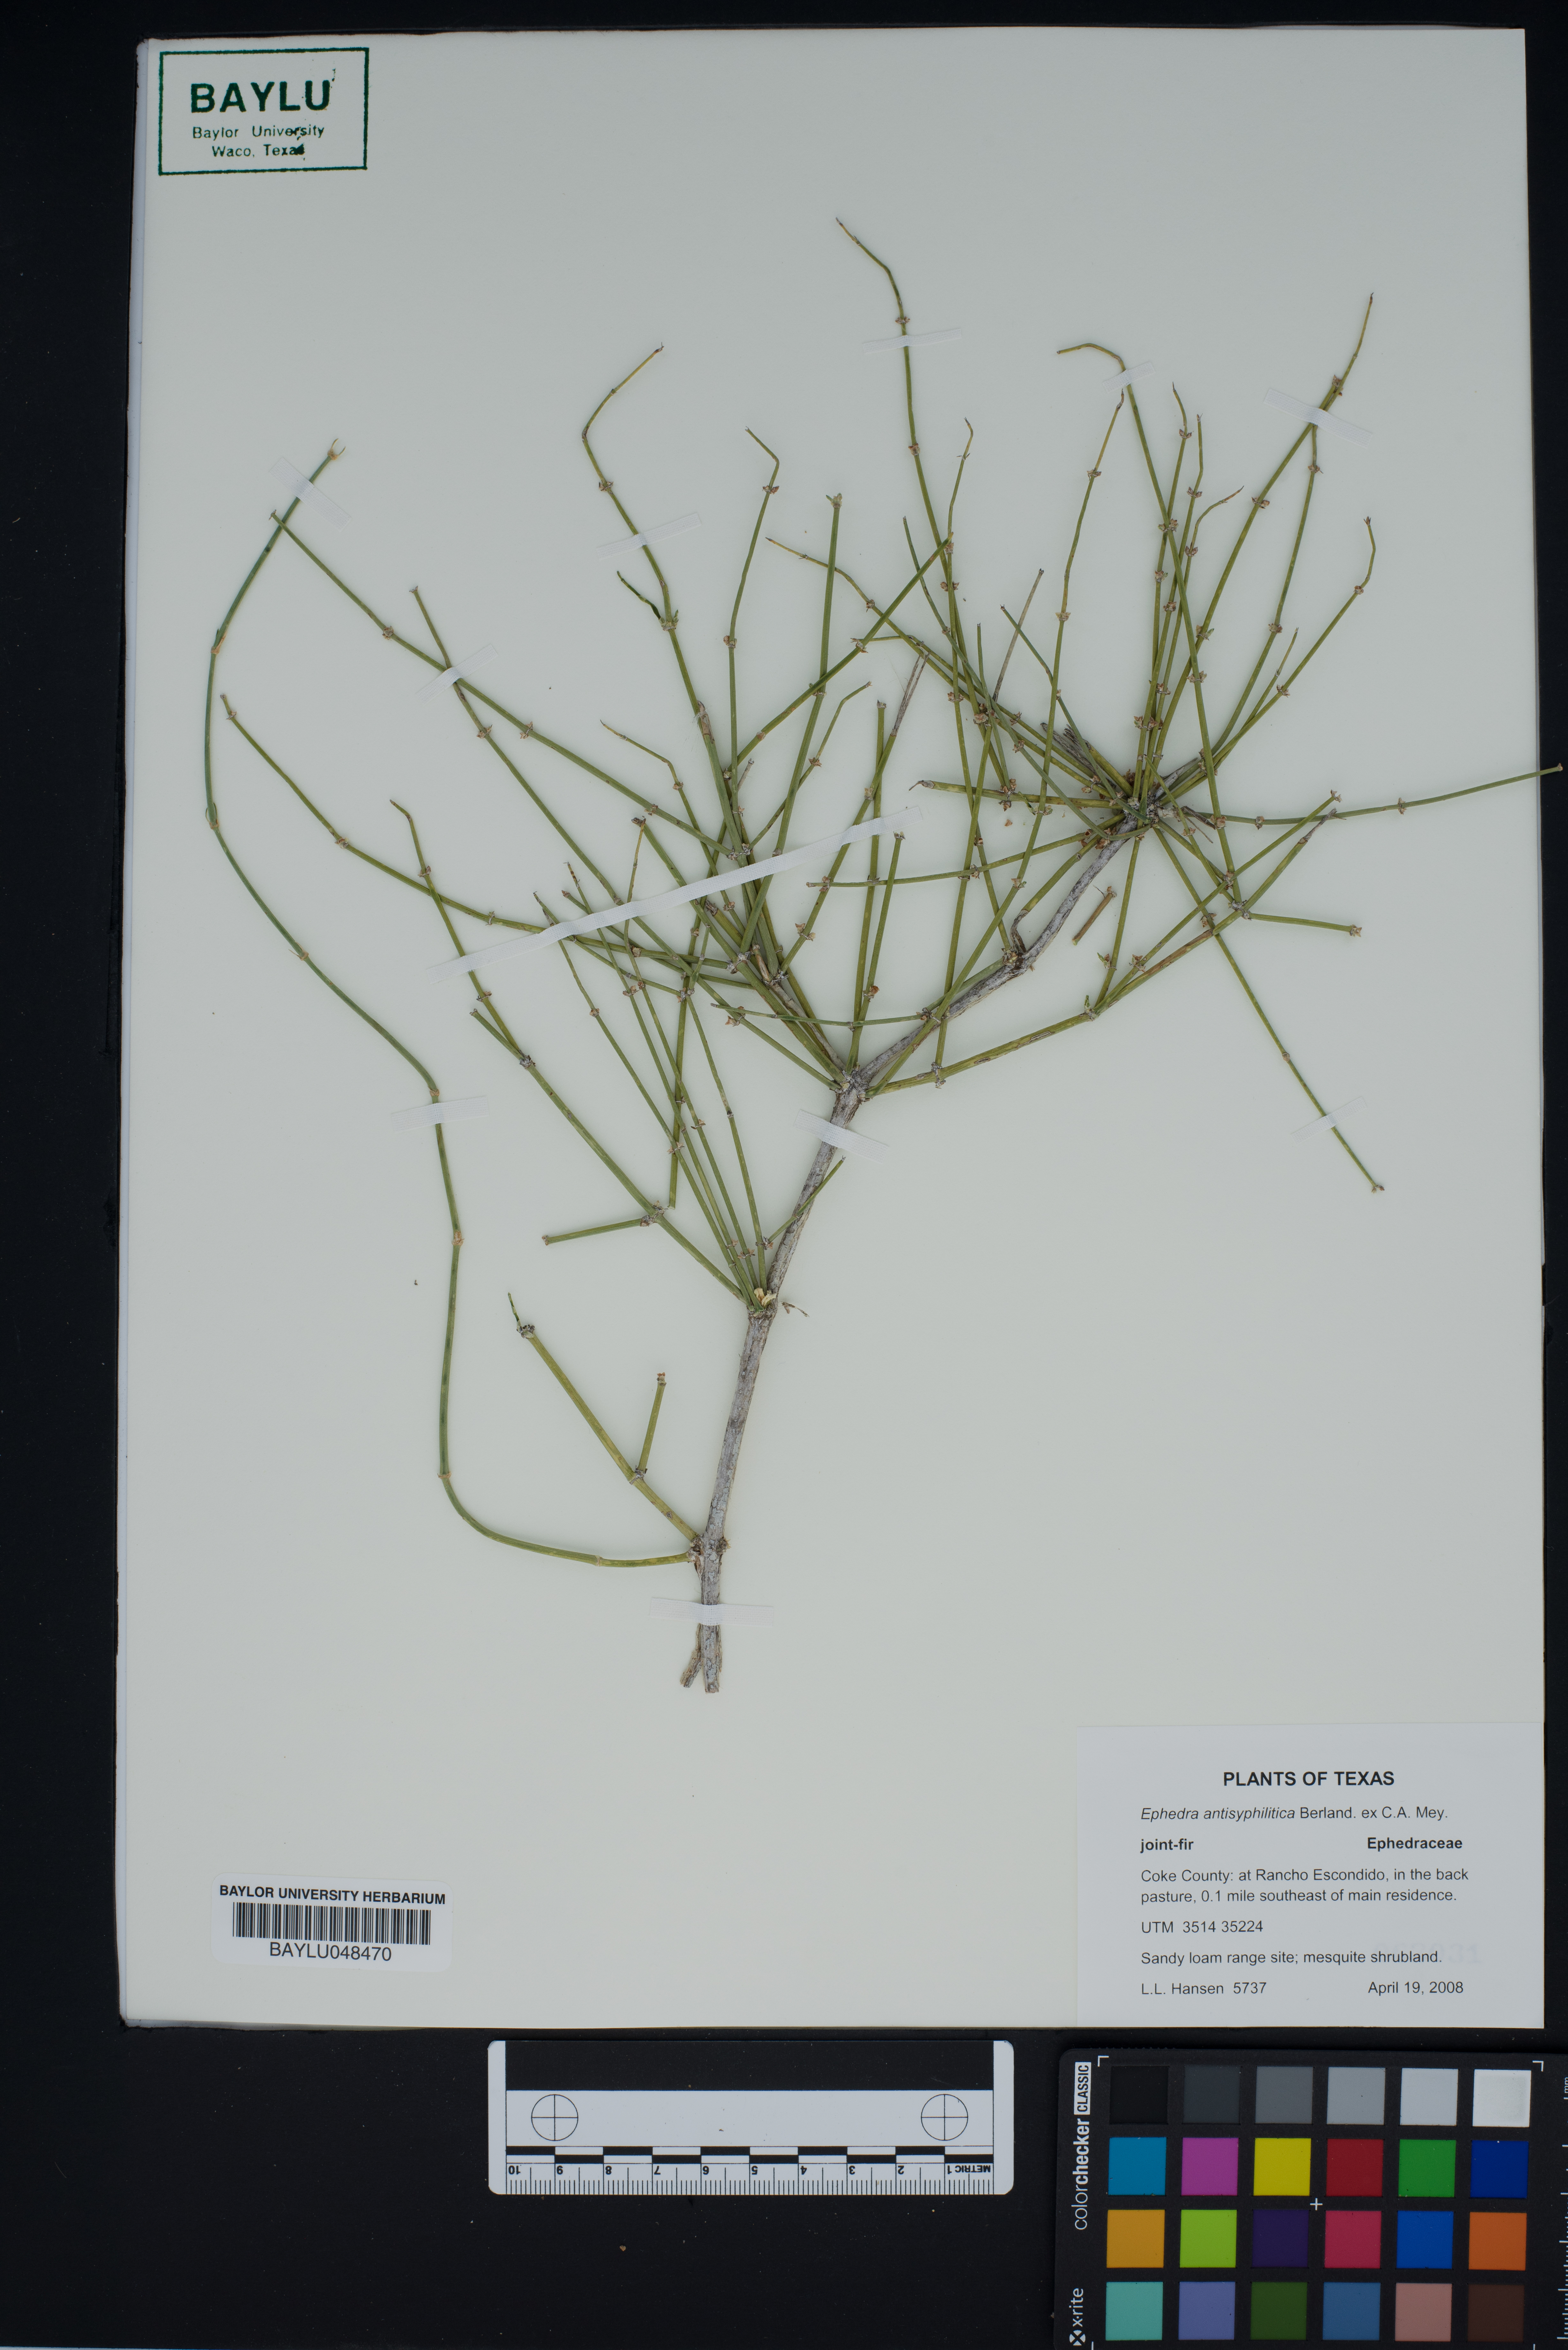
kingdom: Plantae
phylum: Tracheophyta
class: Gnetopsida
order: Ephedrales
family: Ephedraceae
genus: Ephedra
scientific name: Ephedra antisyphilitica
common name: Clipweed
